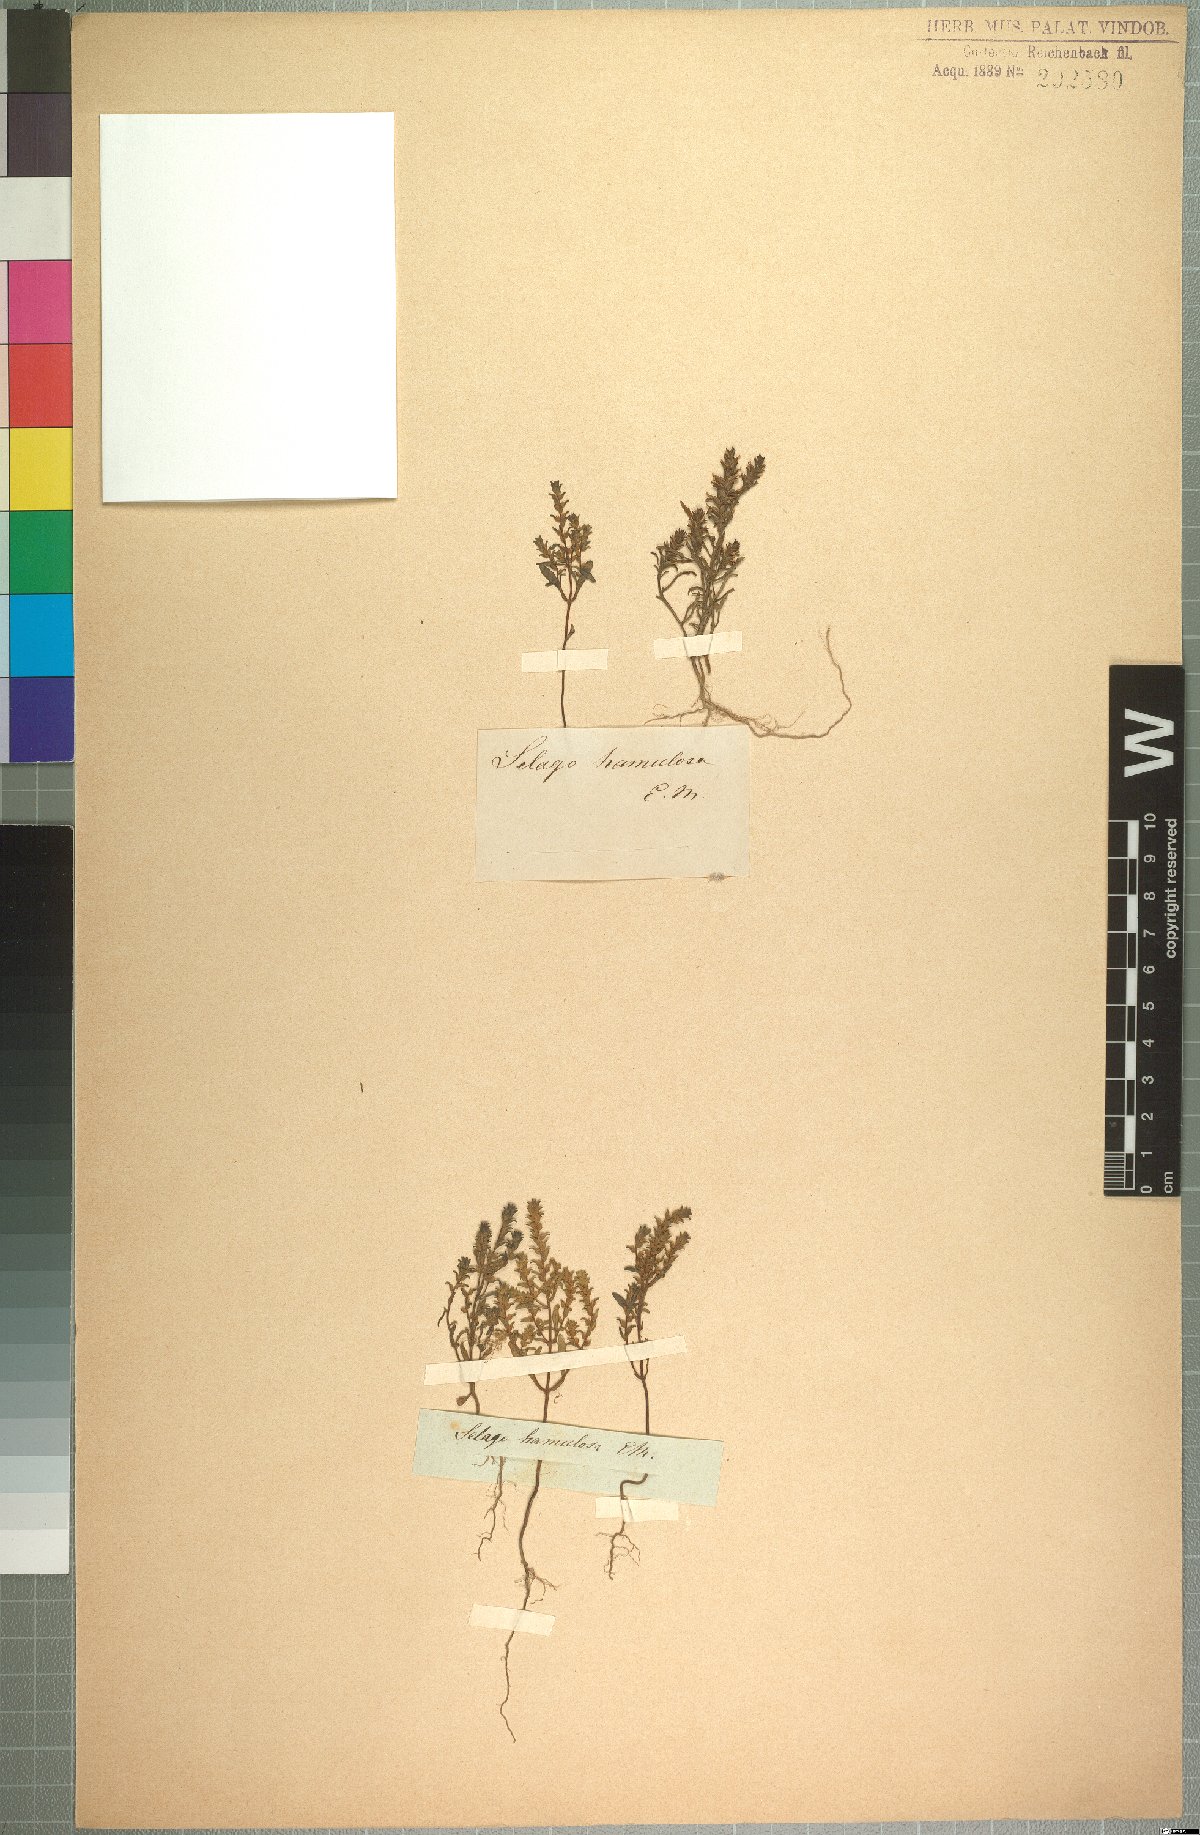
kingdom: Plantae
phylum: Tracheophyta
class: Magnoliopsida
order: Lamiales
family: Scrophulariaceae
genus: Cromidon
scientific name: Cromidon hamulosum
